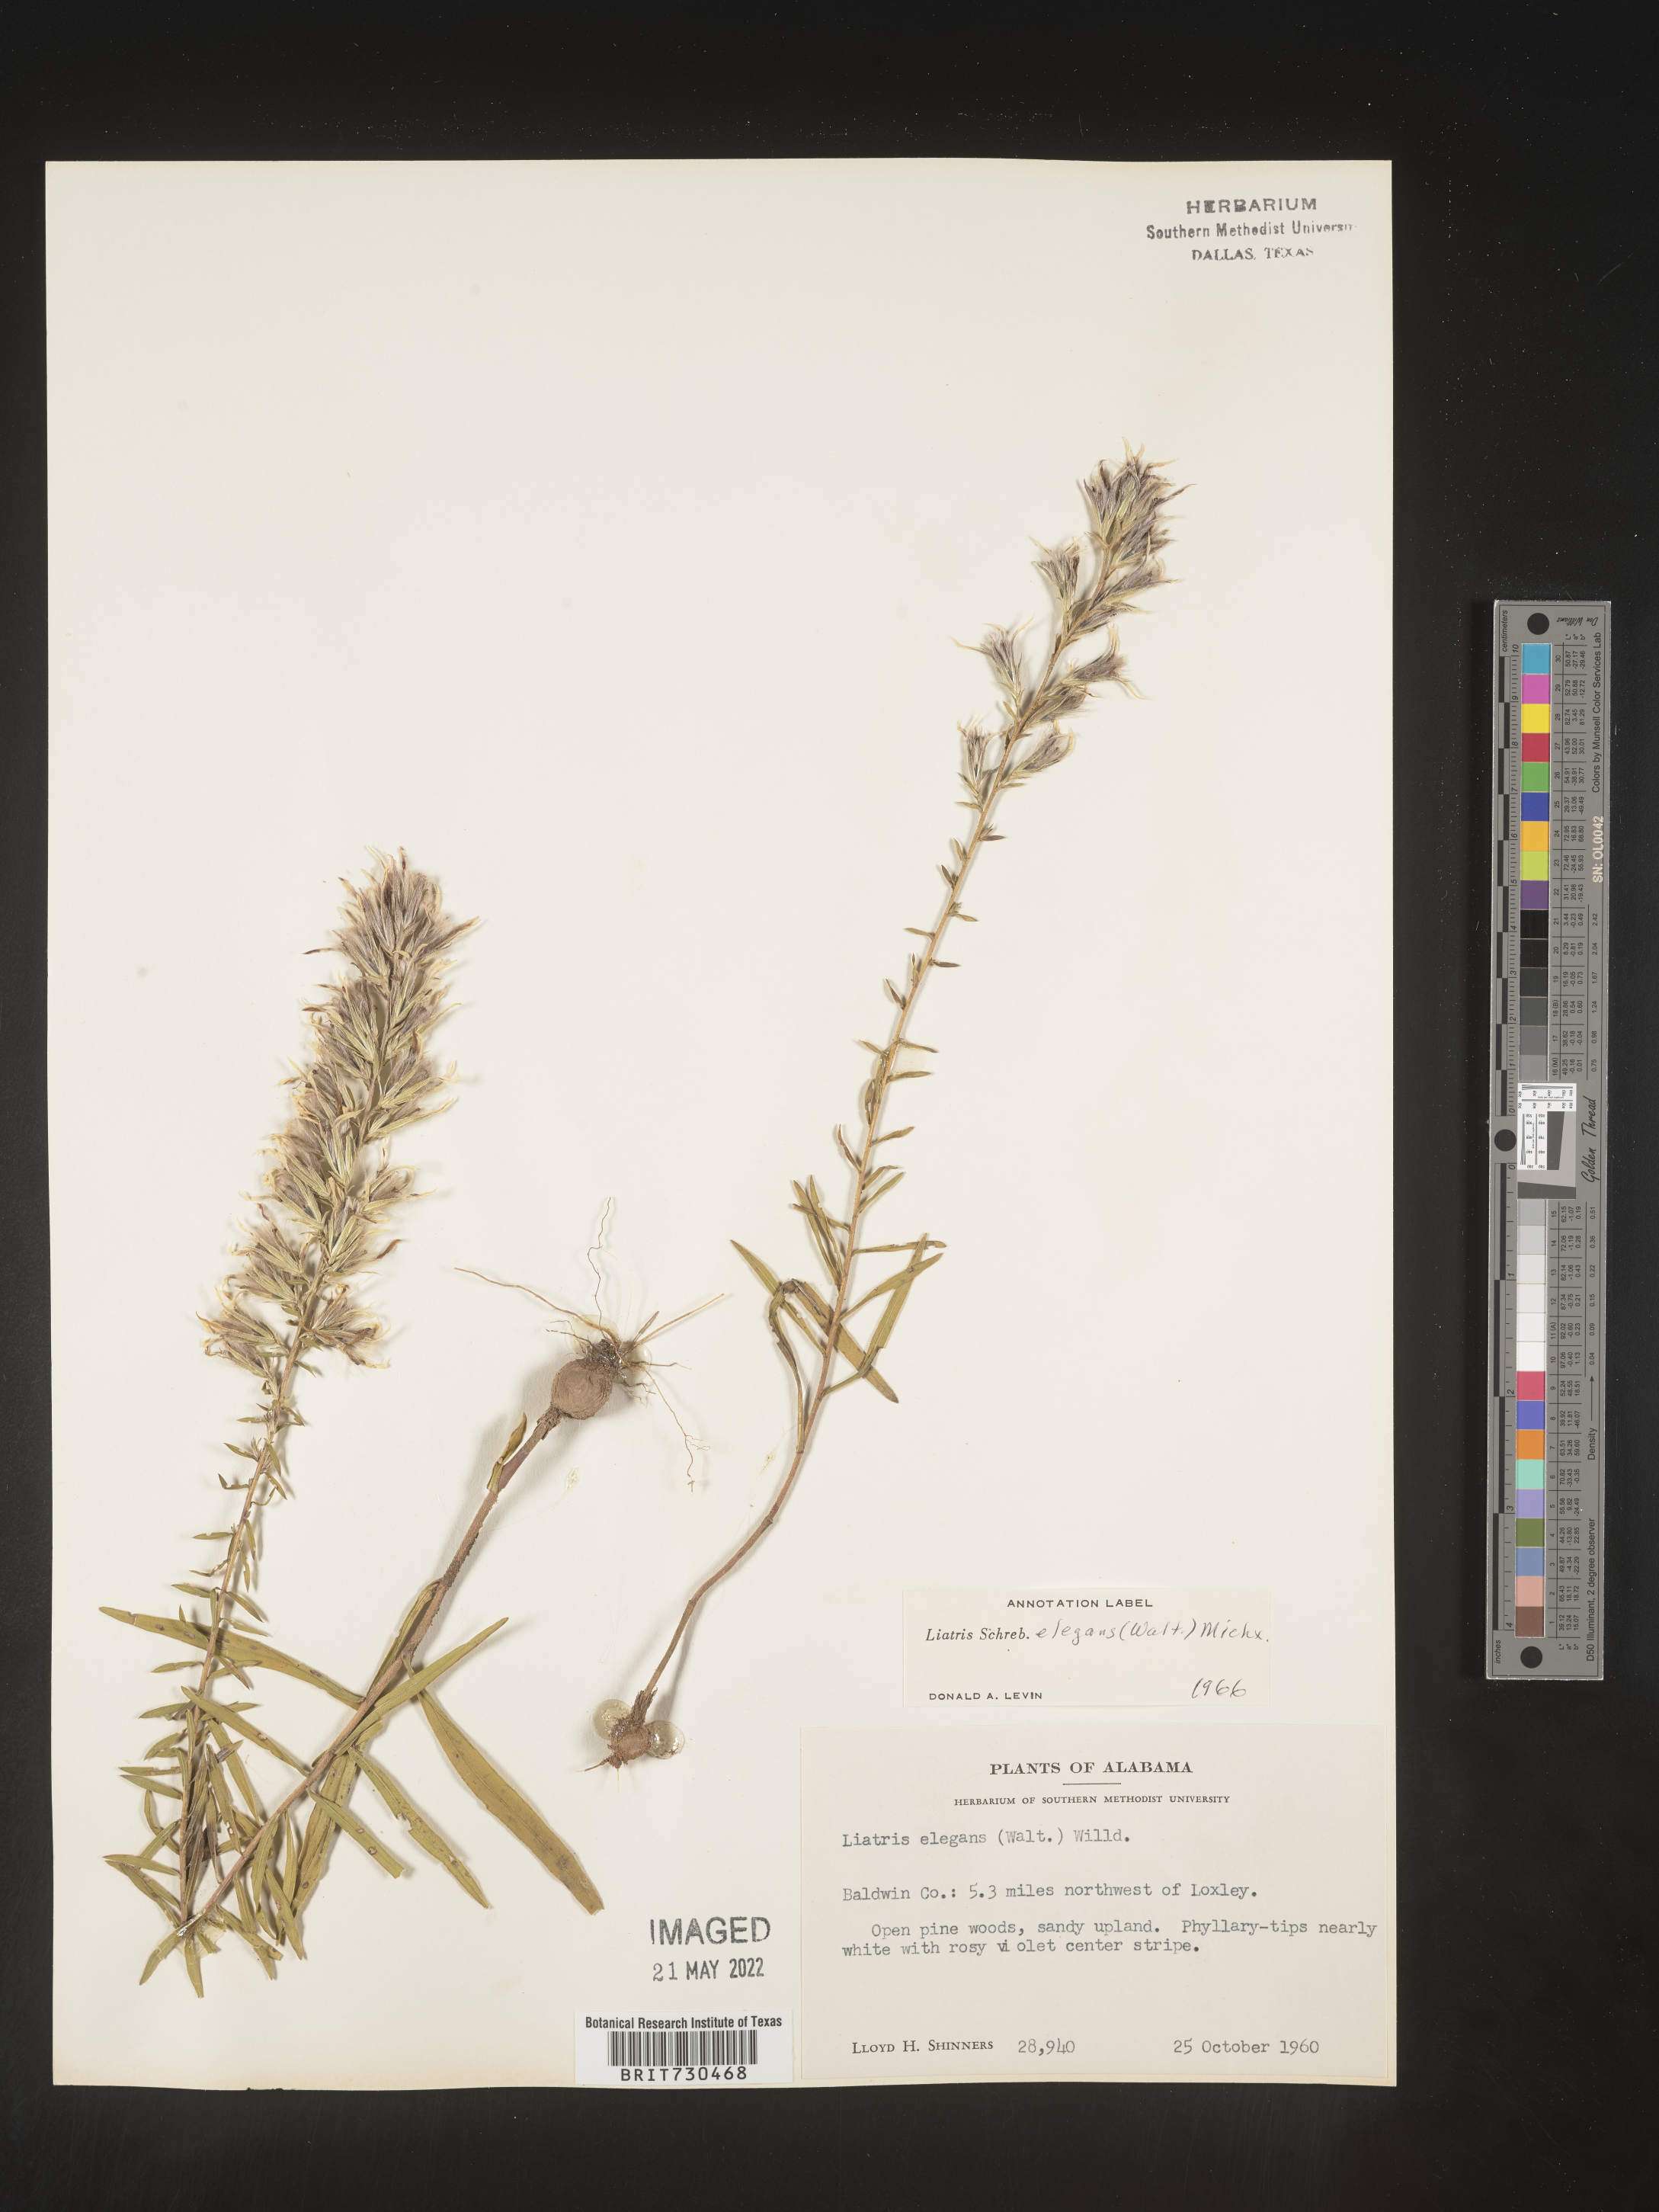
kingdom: Plantae
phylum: Tracheophyta
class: Magnoliopsida
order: Asterales
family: Asteraceae
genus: Liatris
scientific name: Liatris elegans
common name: Pinkscale gayfeather
